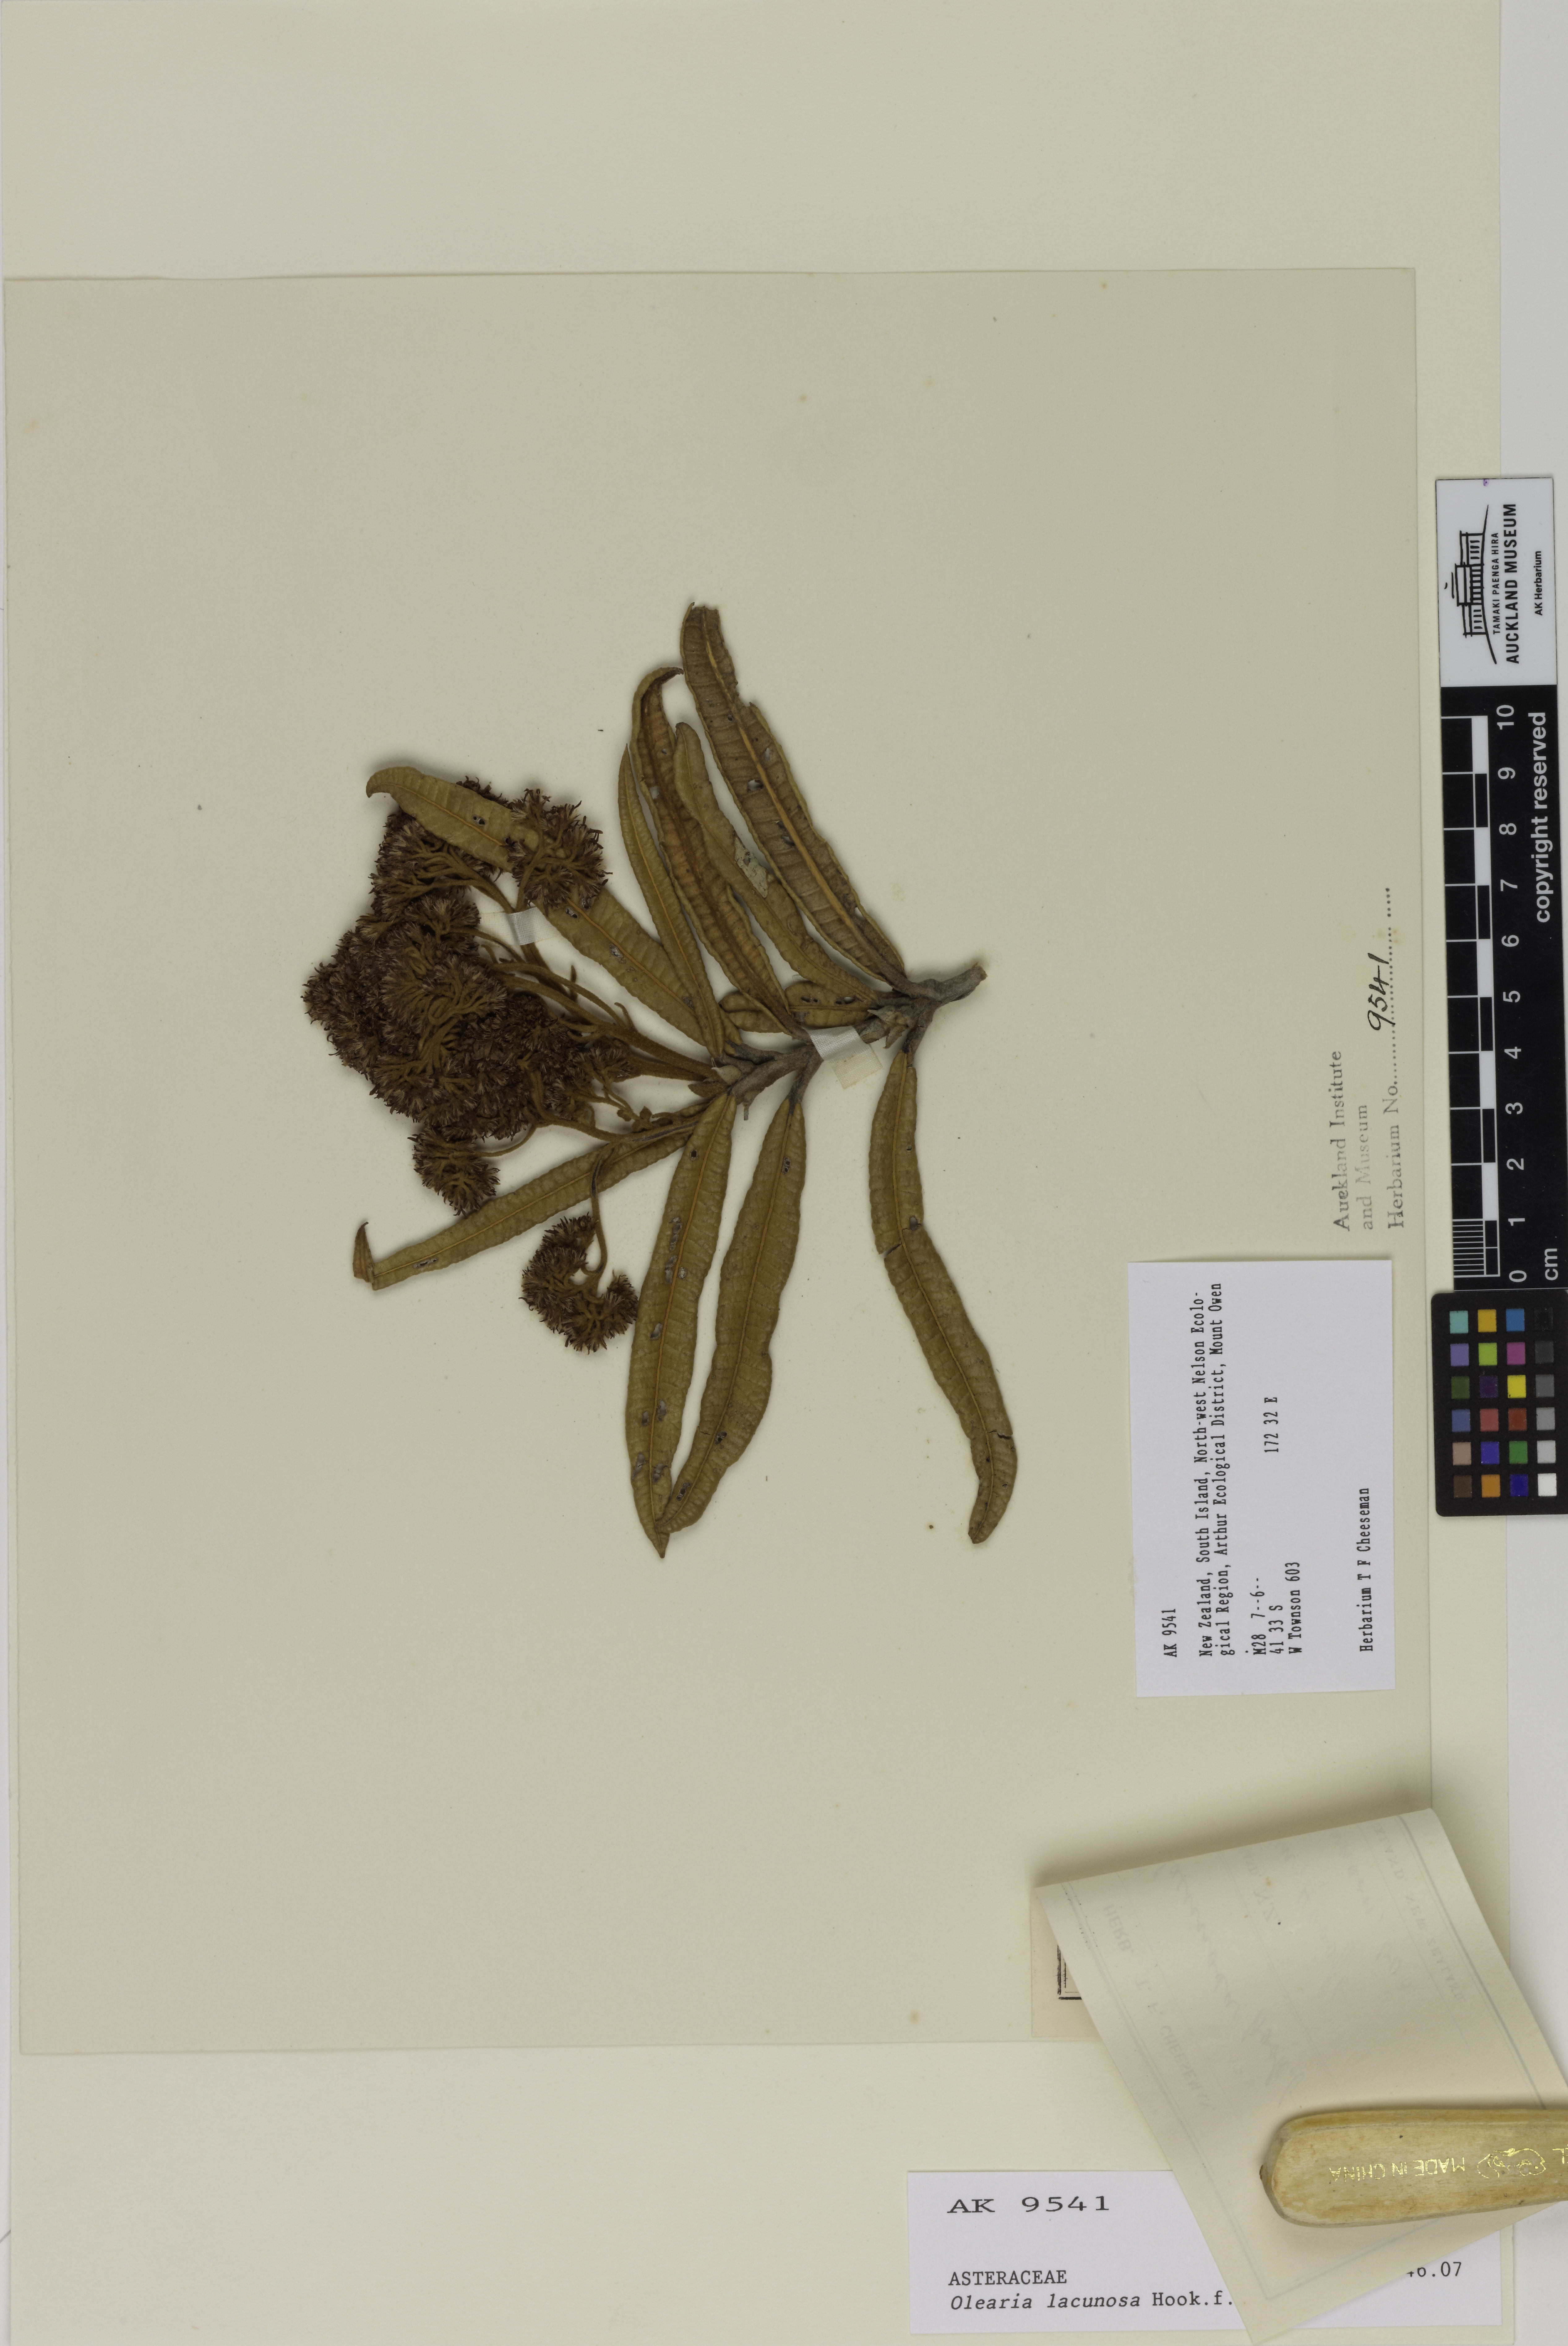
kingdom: Plantae
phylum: Tracheophyta
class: Magnoliopsida
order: Asterales
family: Asteraceae
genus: Olearia
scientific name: Olearia lacunosa
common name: Lancewood tree daisy
